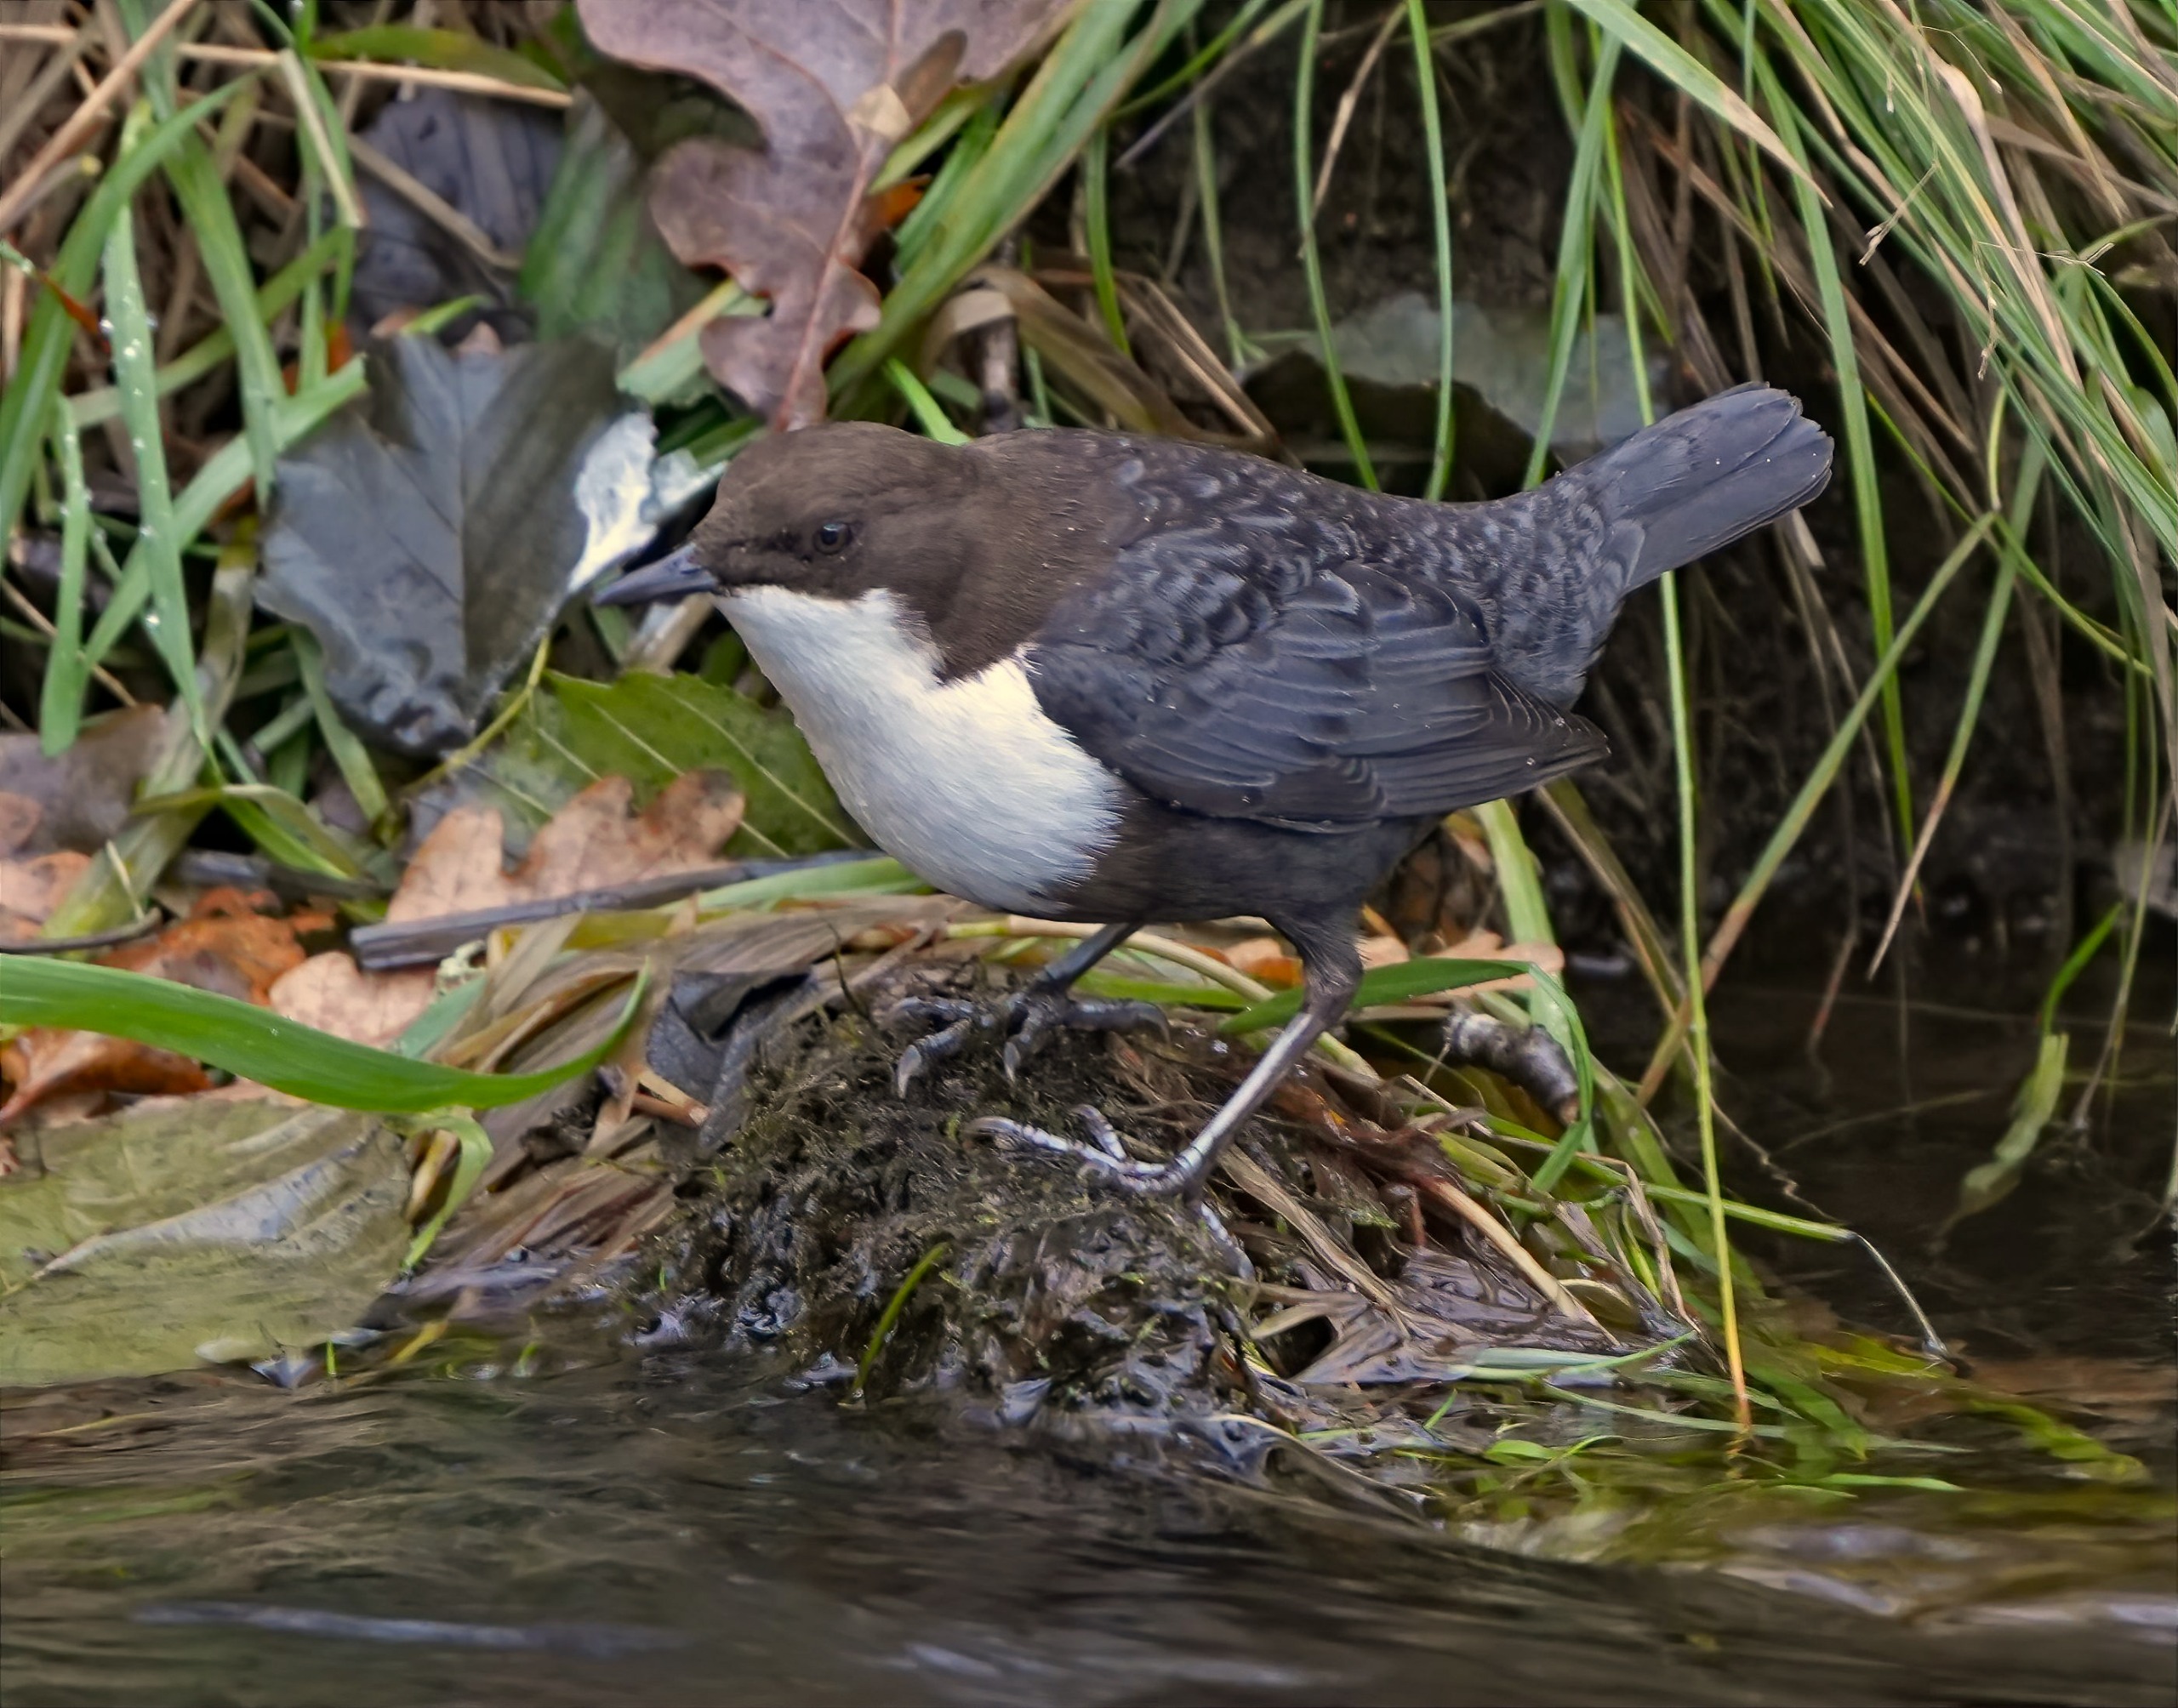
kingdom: Animalia
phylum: Chordata
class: Aves
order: Passeriformes
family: Cinclidae
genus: Cinclus
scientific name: Cinclus cinclus
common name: Vandstær
